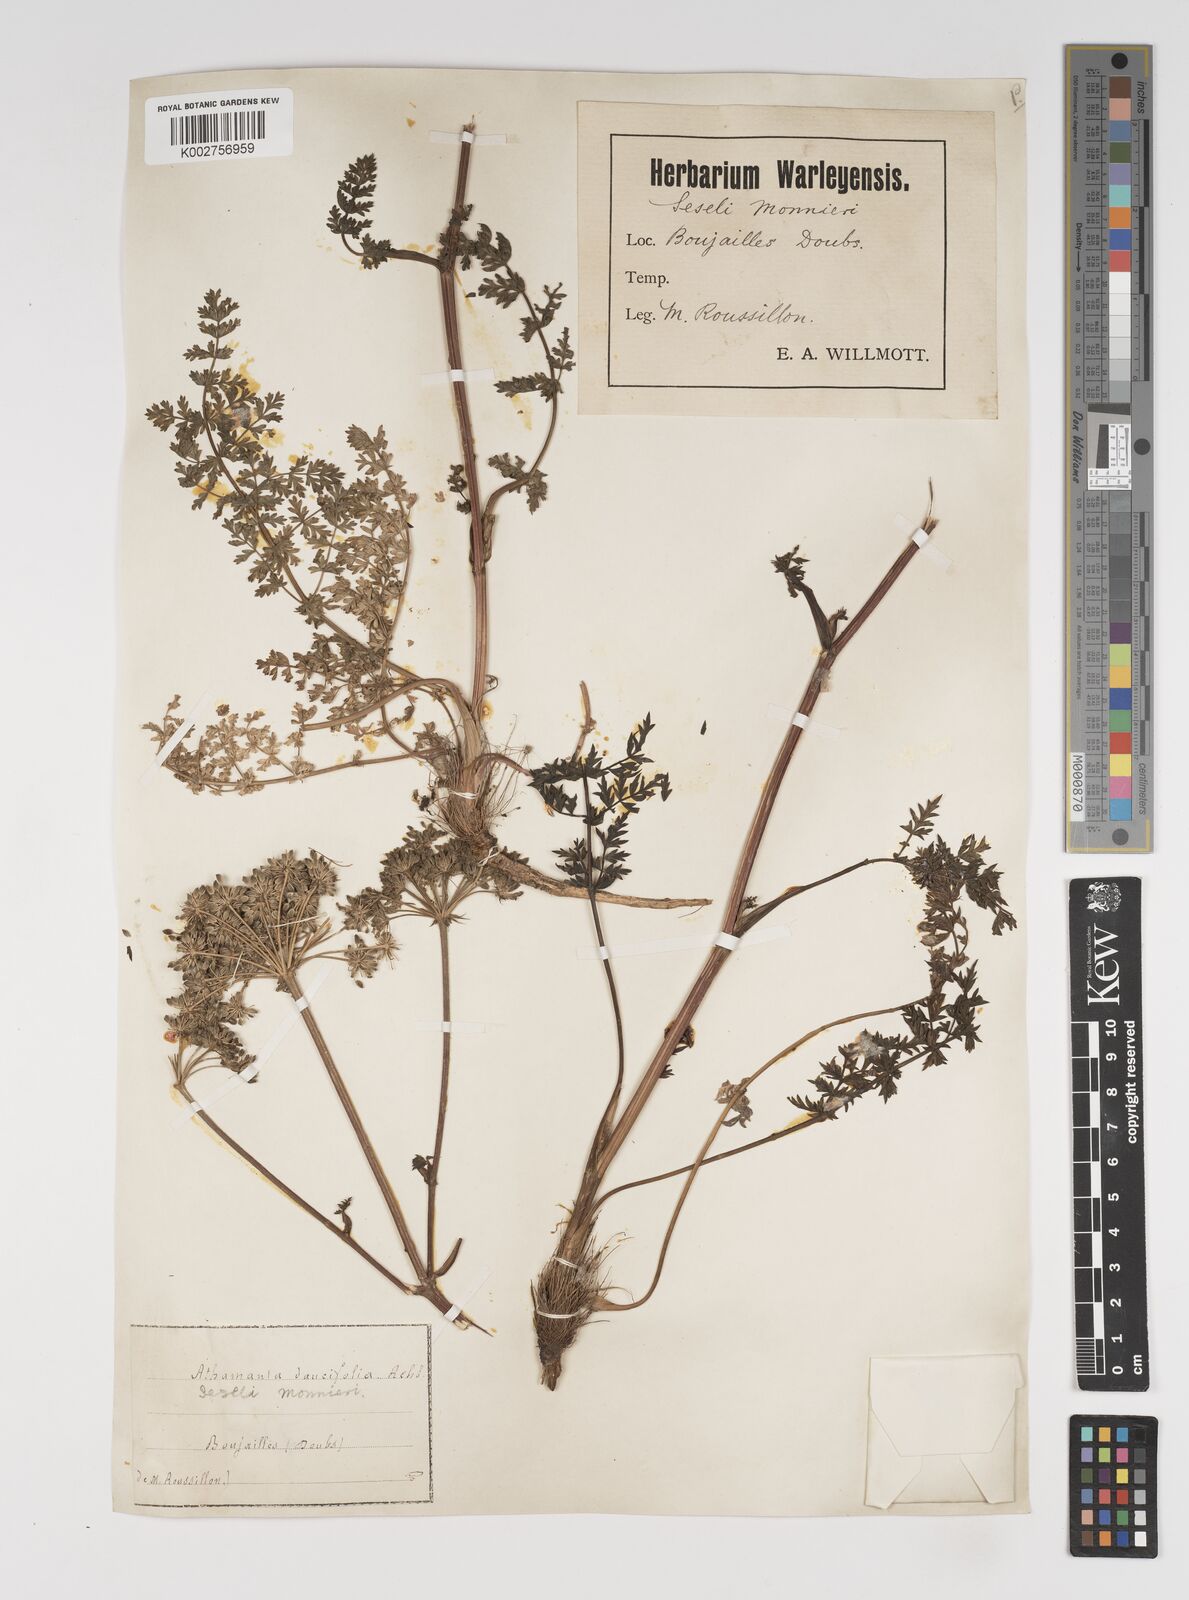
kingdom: Plantae
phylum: Tracheophyta
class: Magnoliopsida
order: Apiales
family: Apiaceae
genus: Seseli
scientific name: Seseli libanotis
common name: Mooncarrot
